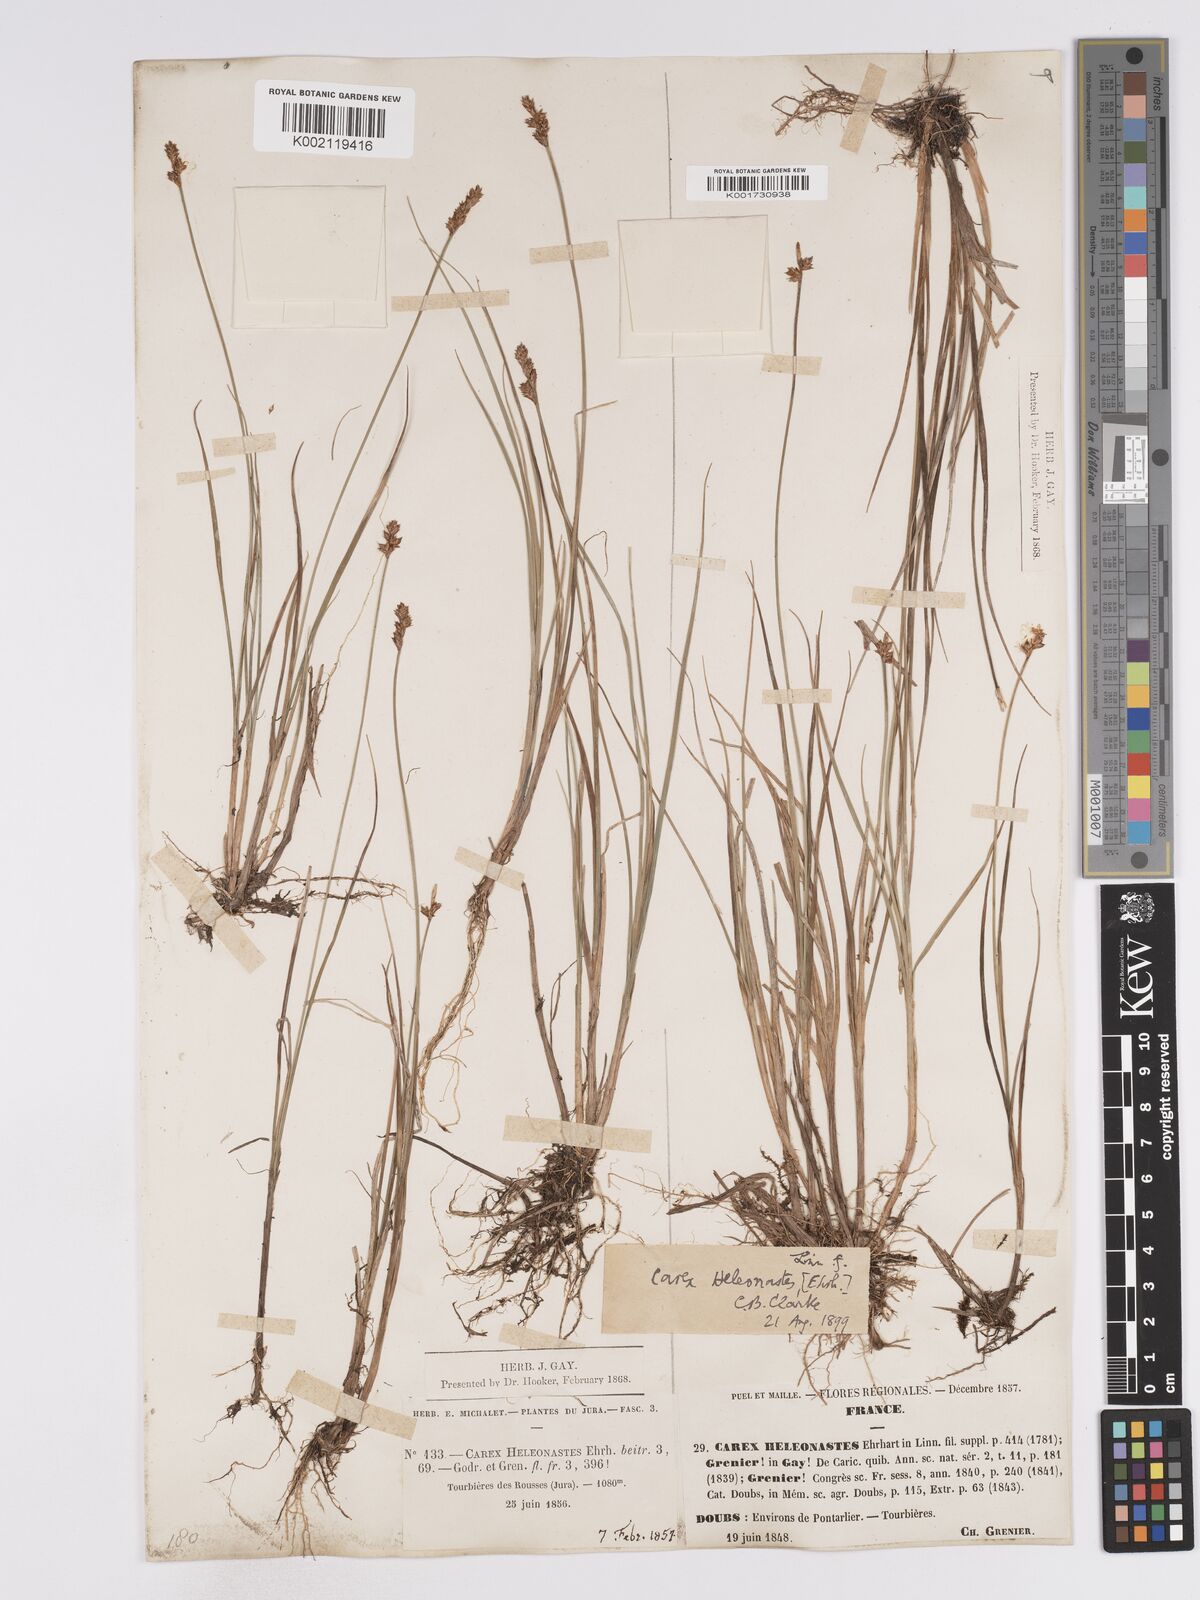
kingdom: Plantae
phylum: Tracheophyta
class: Liliopsida
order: Poales
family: Cyperaceae
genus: Carex
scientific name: Carex heleonastes
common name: Hudson bay sedge
